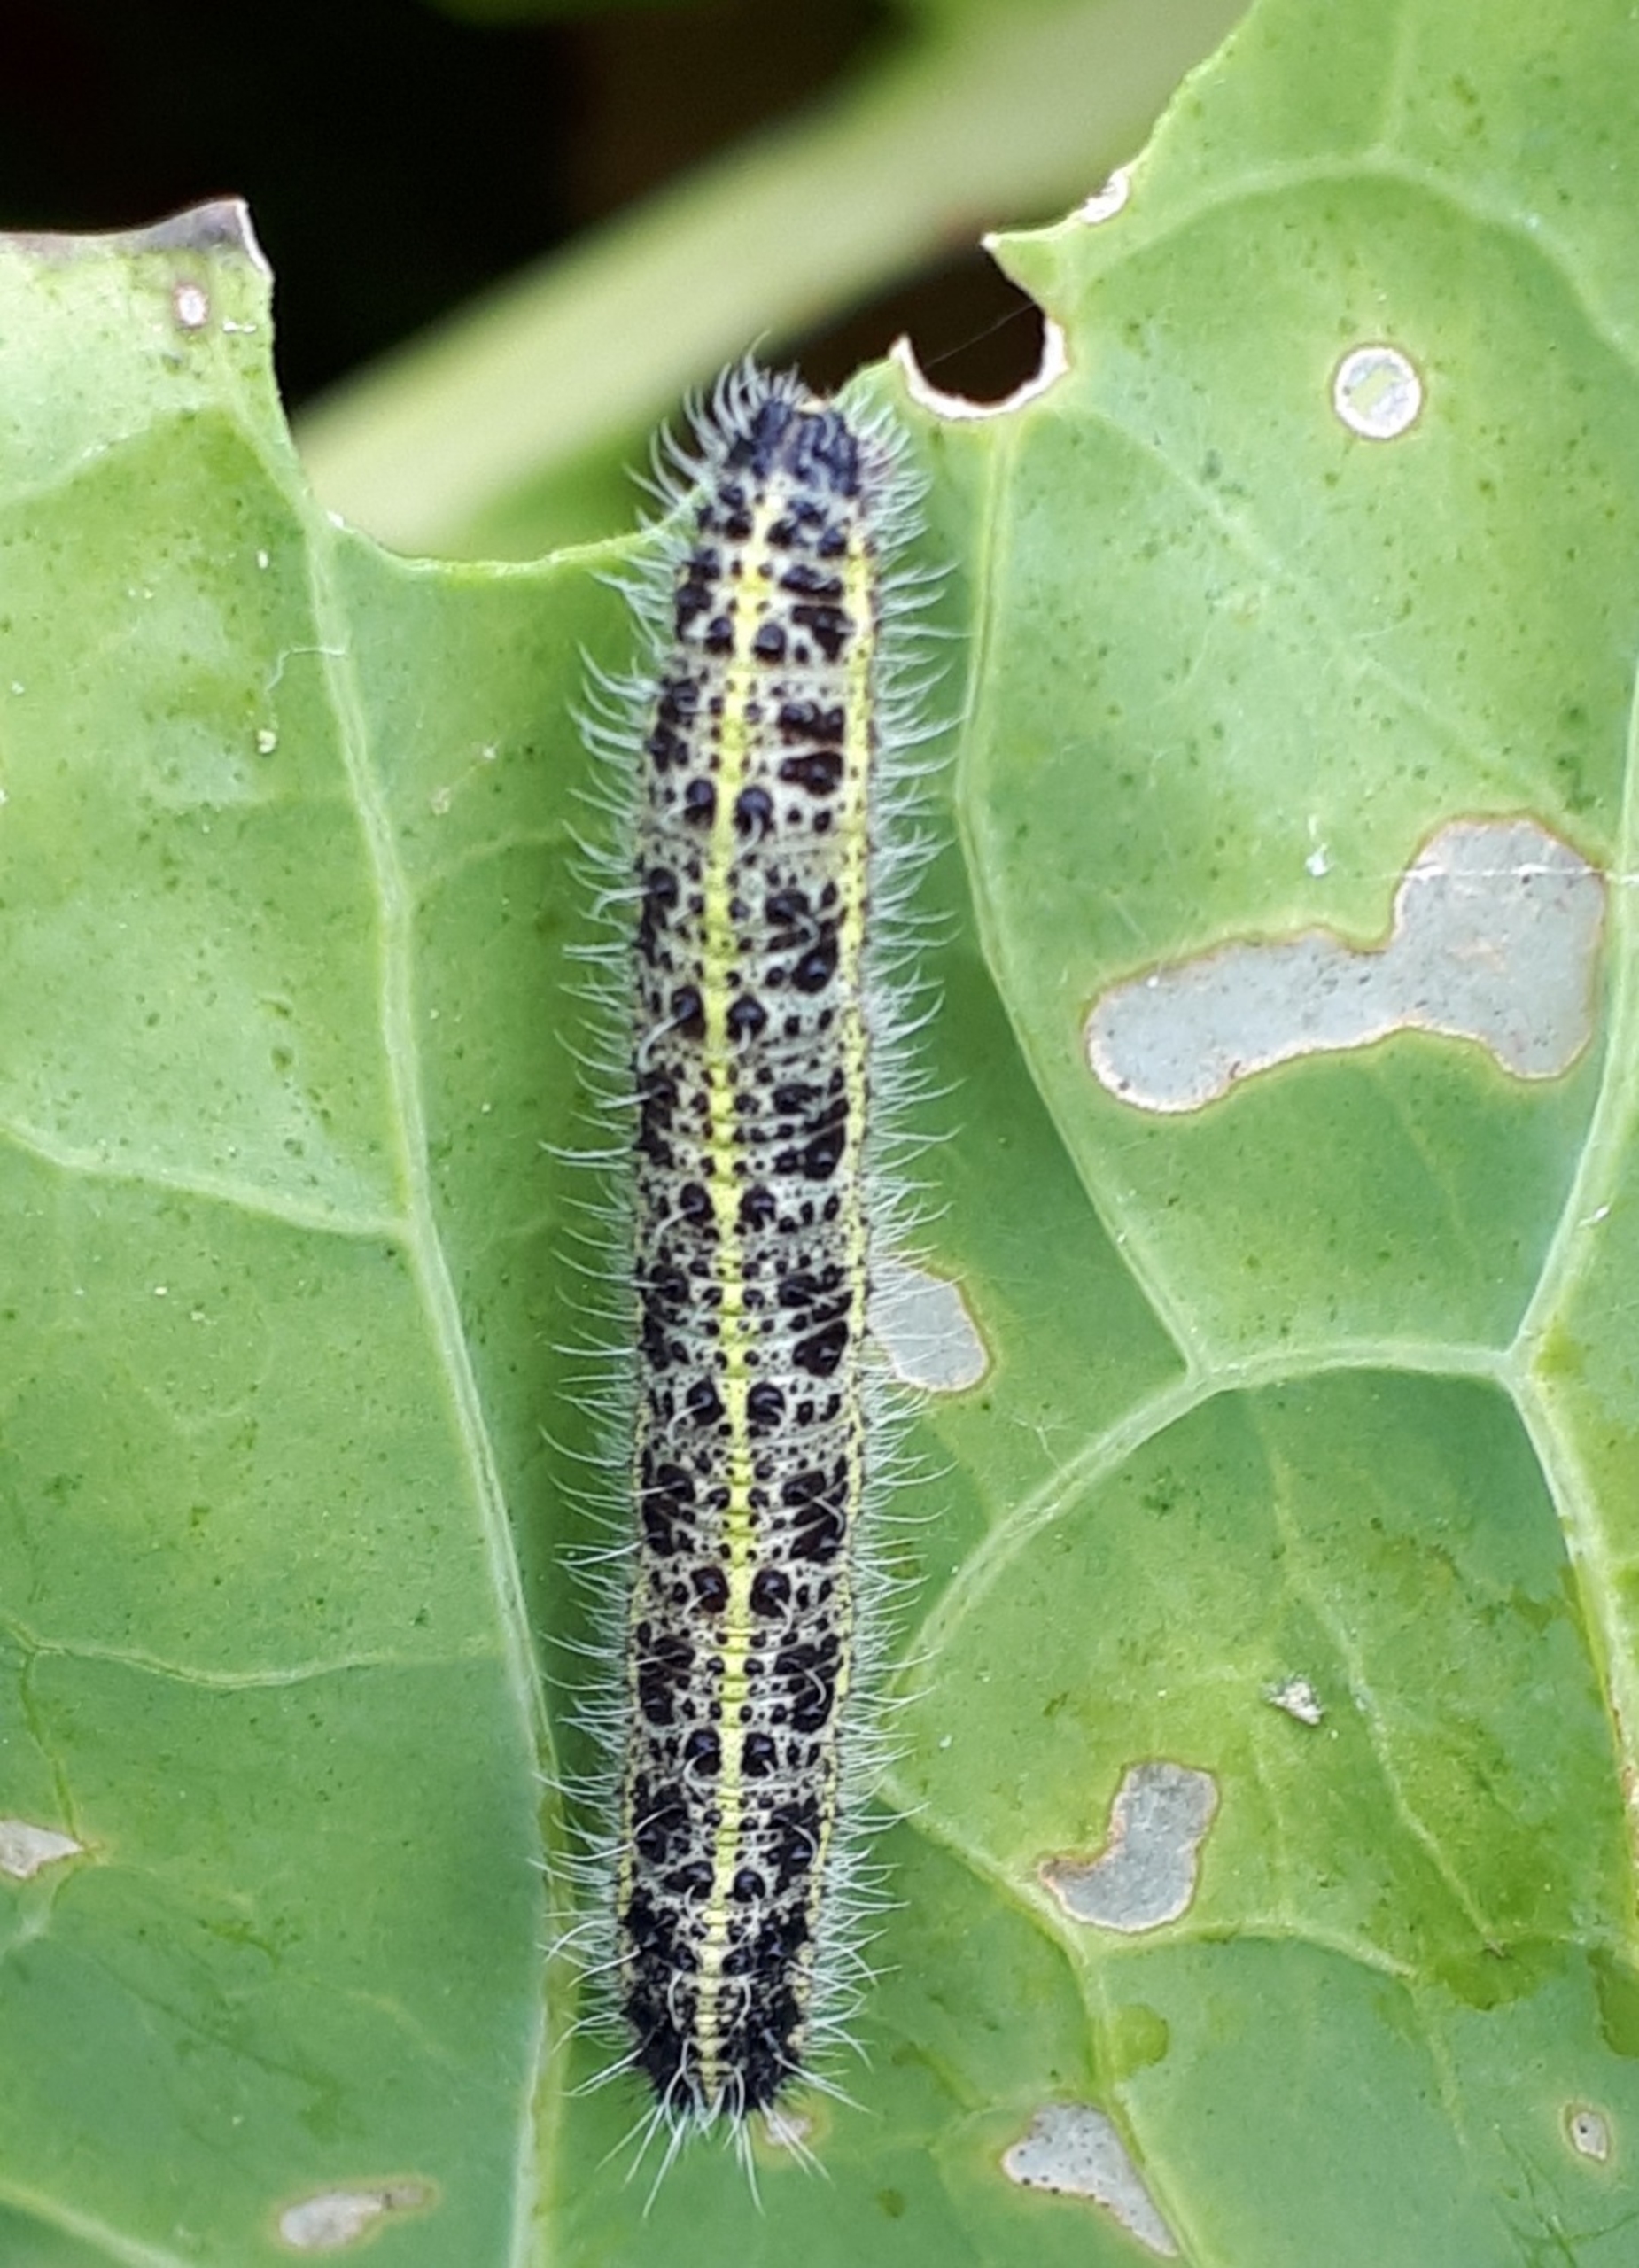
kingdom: Animalia
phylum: Arthropoda
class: Insecta
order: Lepidoptera
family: Pieridae
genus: Pieris
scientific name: Pieris brassicae
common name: Stor kålsommerfugl
